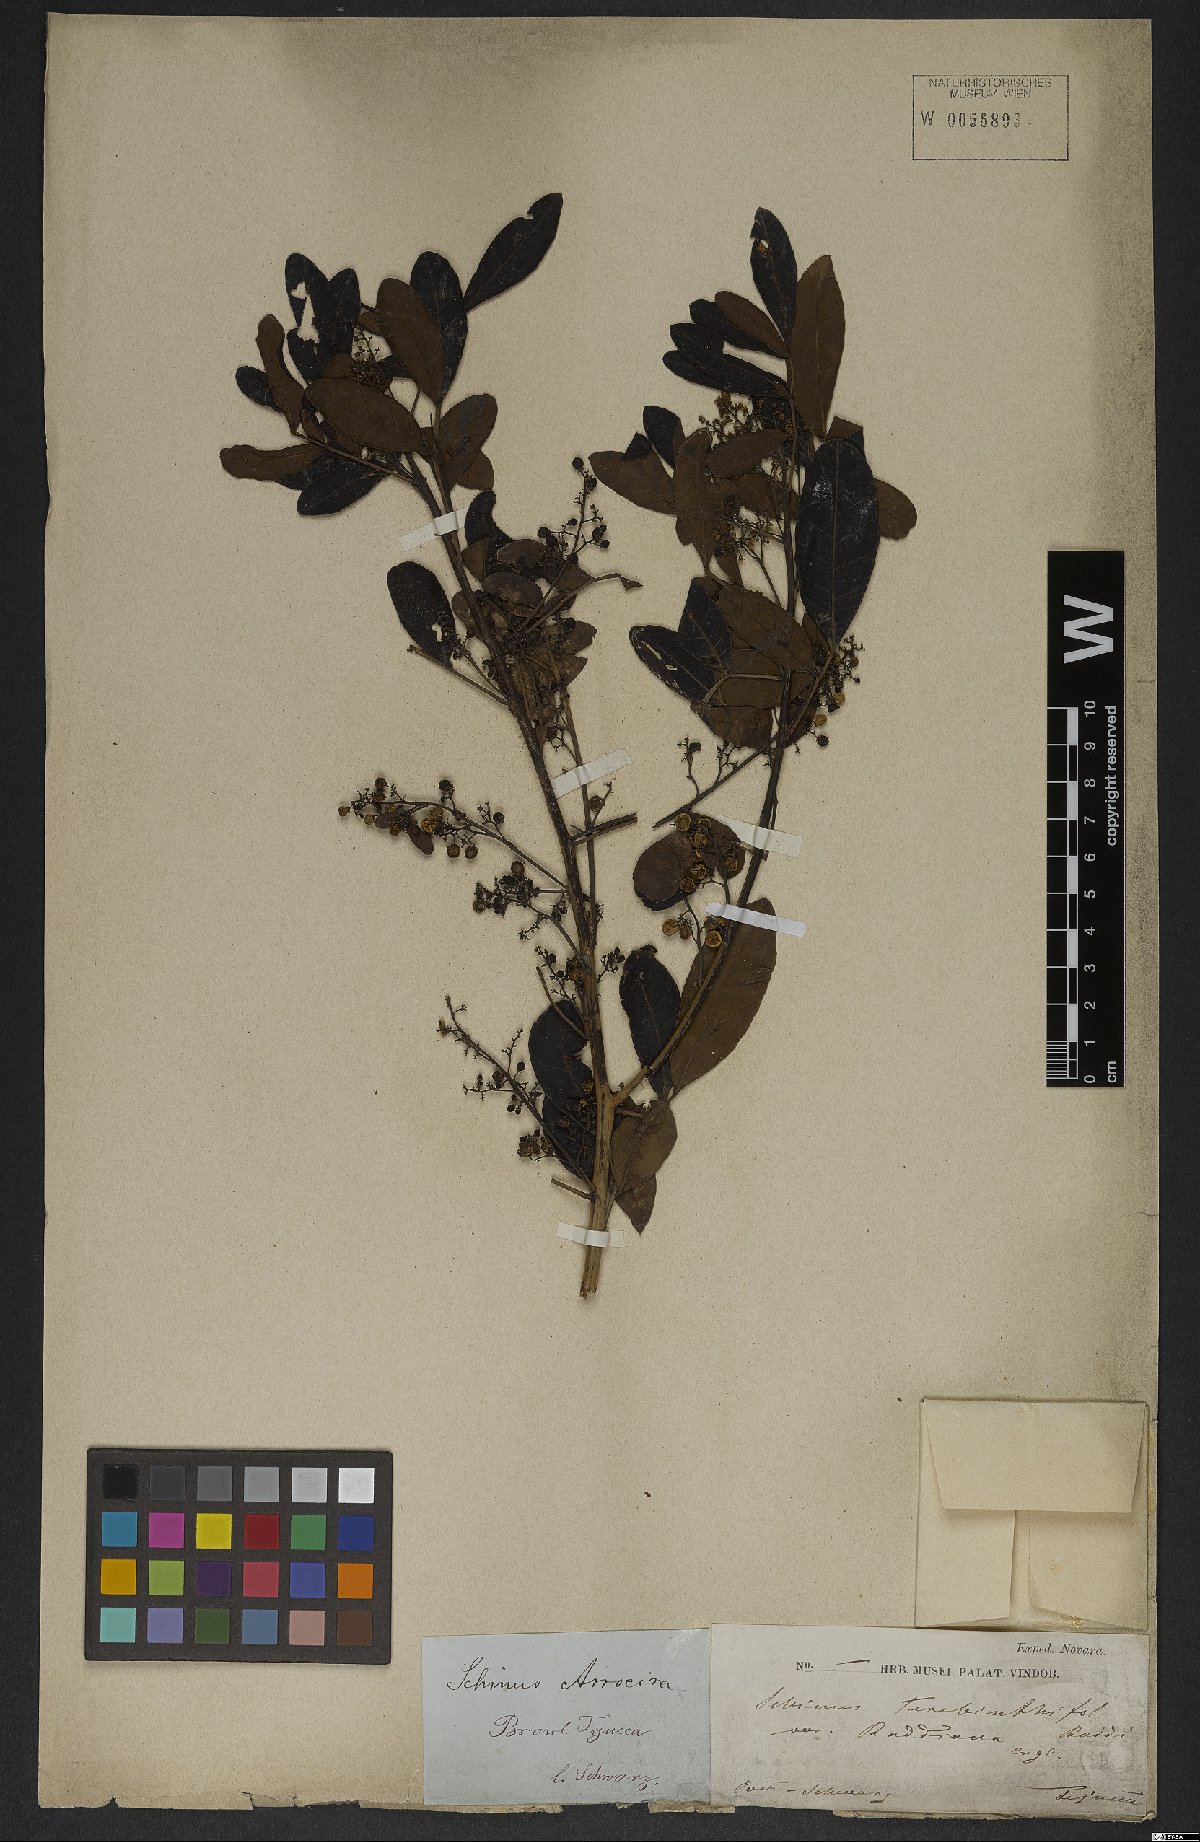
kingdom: Plantae
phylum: Tracheophyta
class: Magnoliopsida
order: Gentianales
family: Apocynaceae
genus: Tabernaemontana
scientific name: Tabernaemontana laeta
